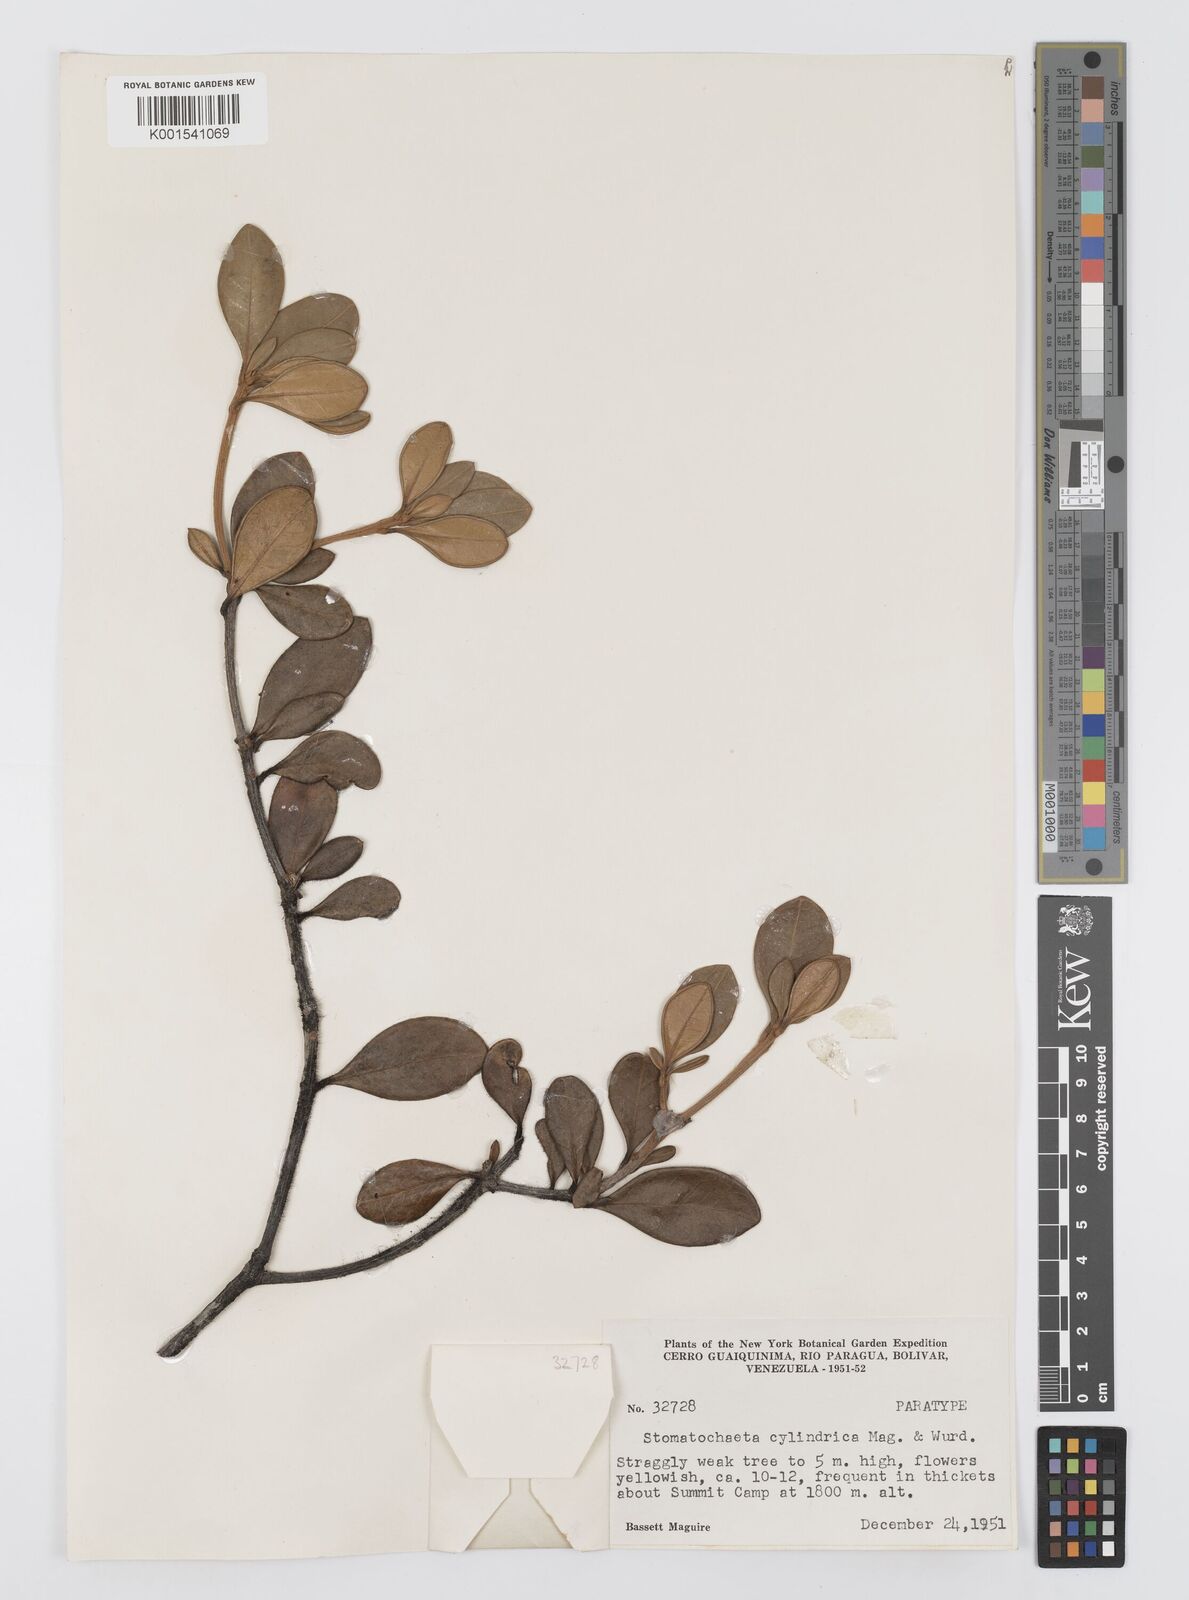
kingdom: Plantae
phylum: Tracheophyta
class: Magnoliopsida
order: Asterales
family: Asteraceae
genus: Stomatochaeta
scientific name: Stomatochaeta cylindrica
